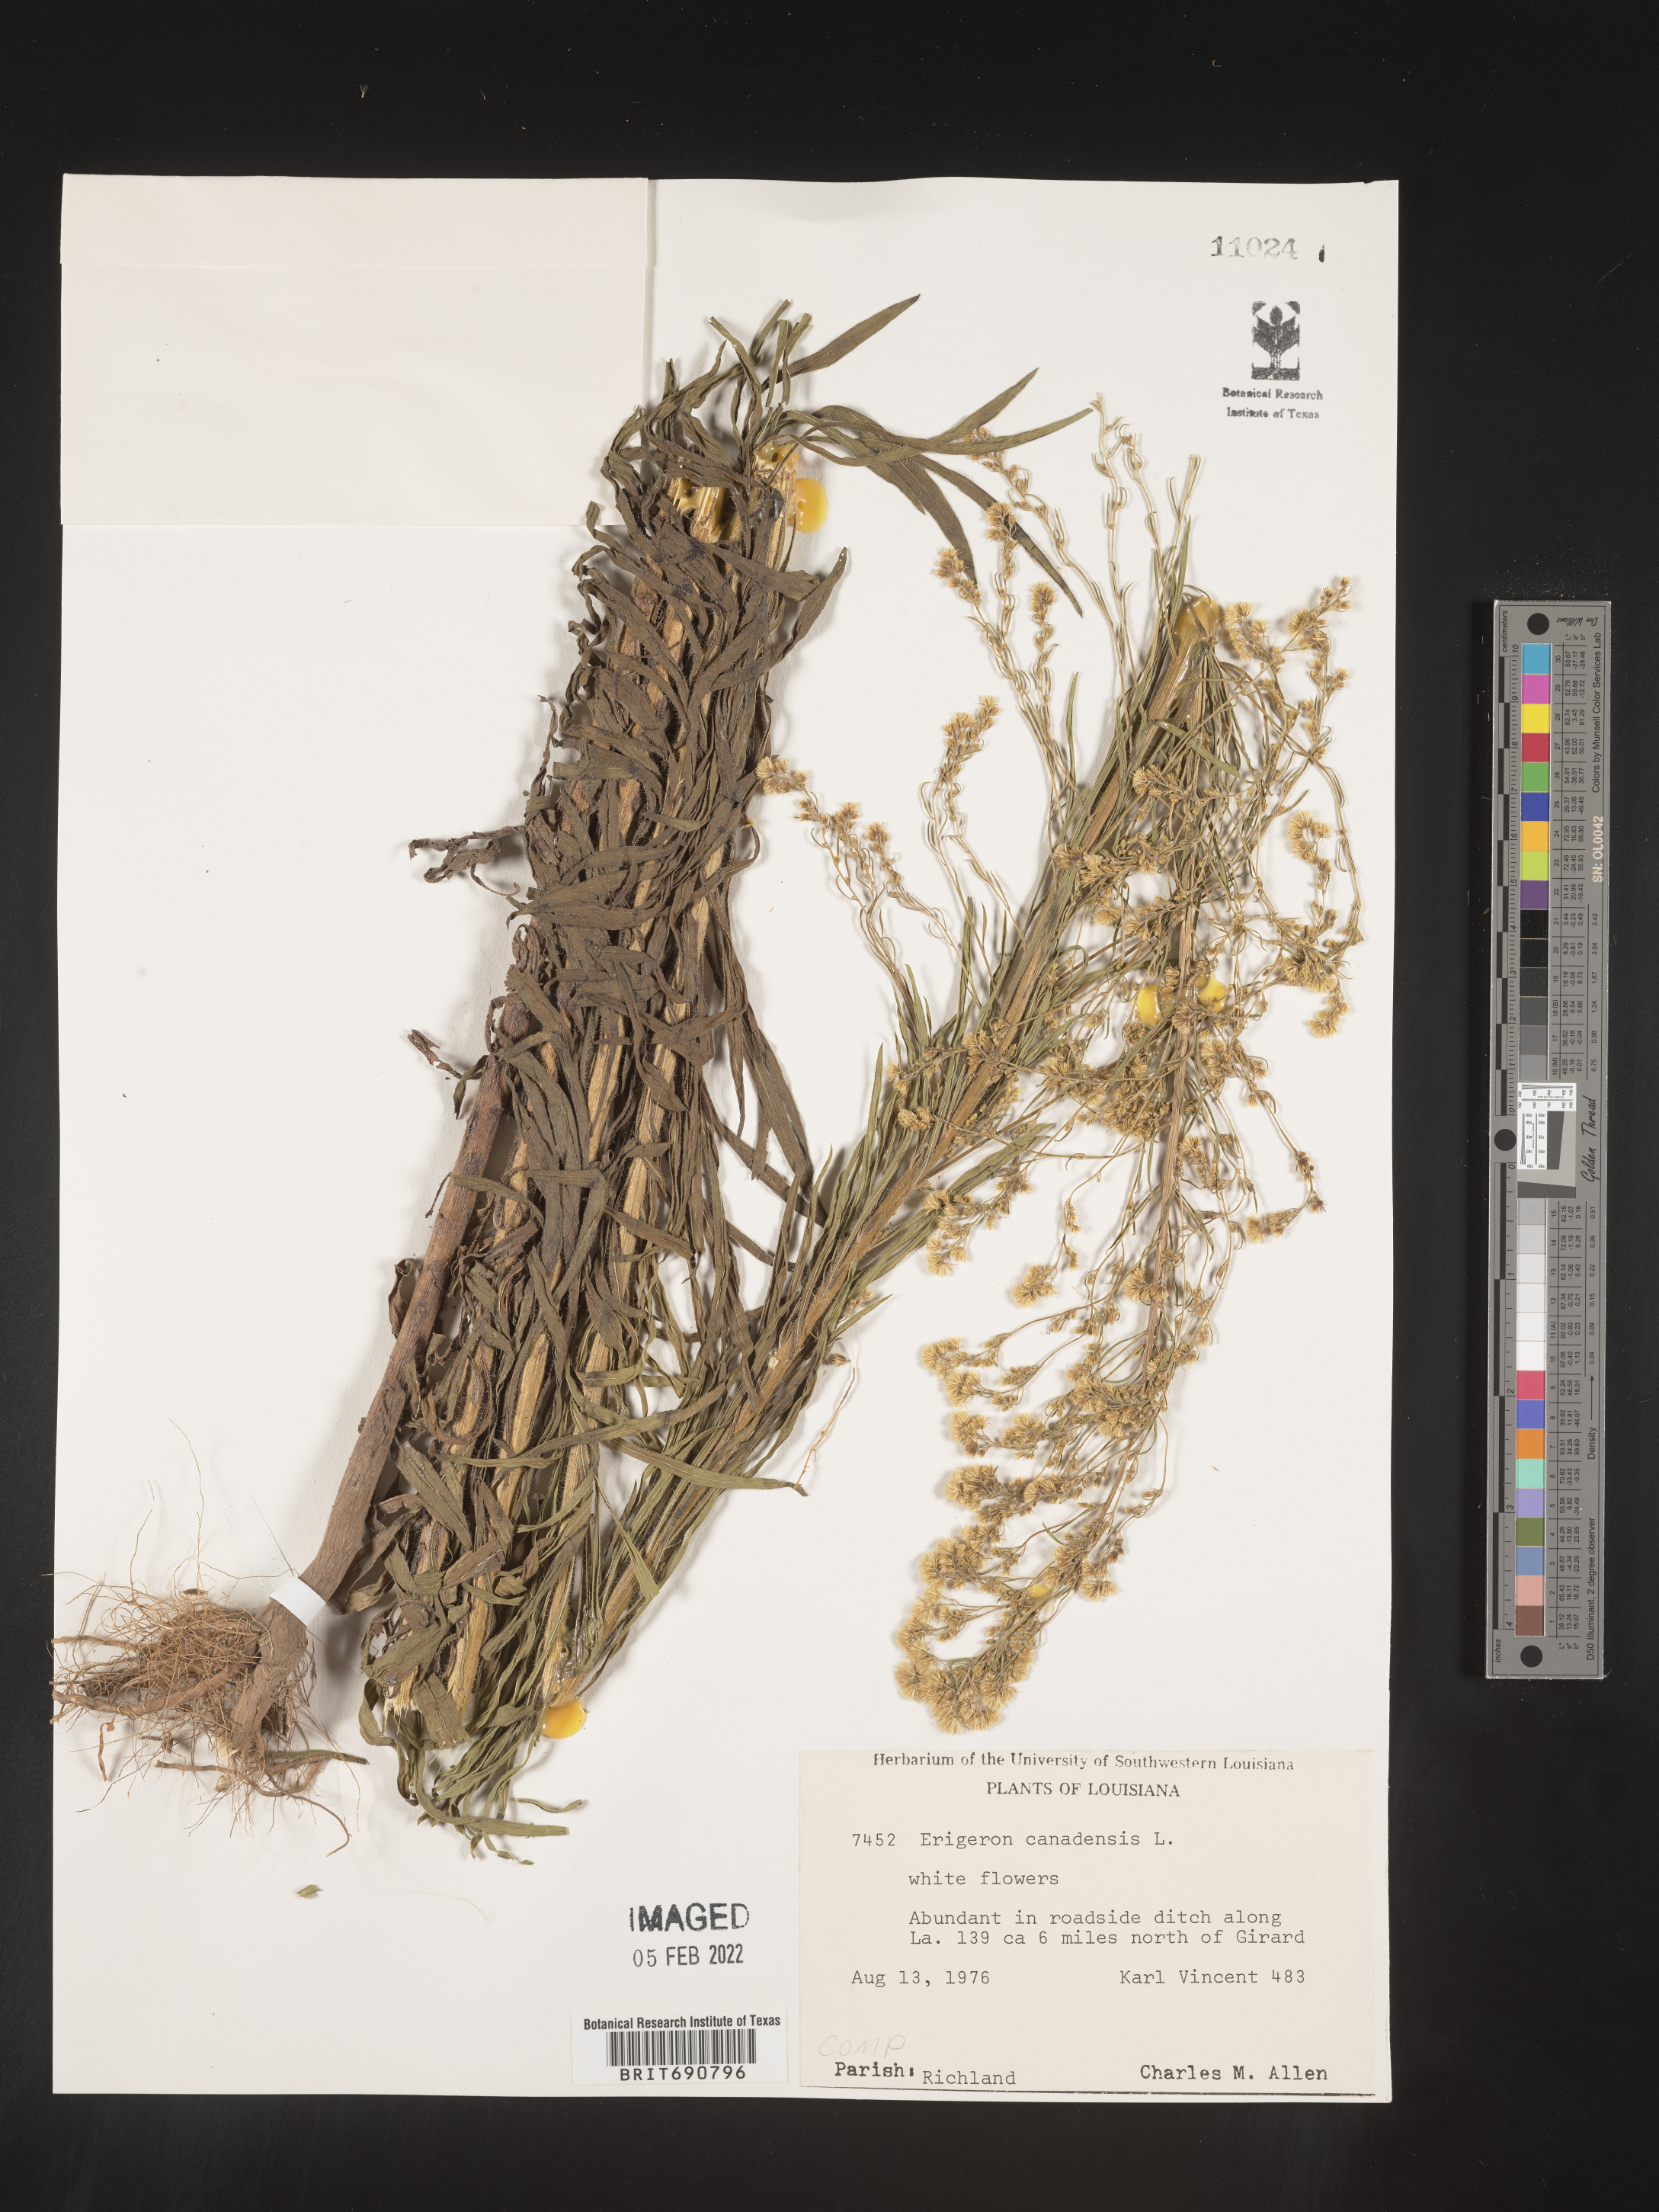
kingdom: Plantae
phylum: Tracheophyta
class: Magnoliopsida
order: Asterales
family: Asteraceae
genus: Erigeron
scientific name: Erigeron canadensis
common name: Canadian fleabane
